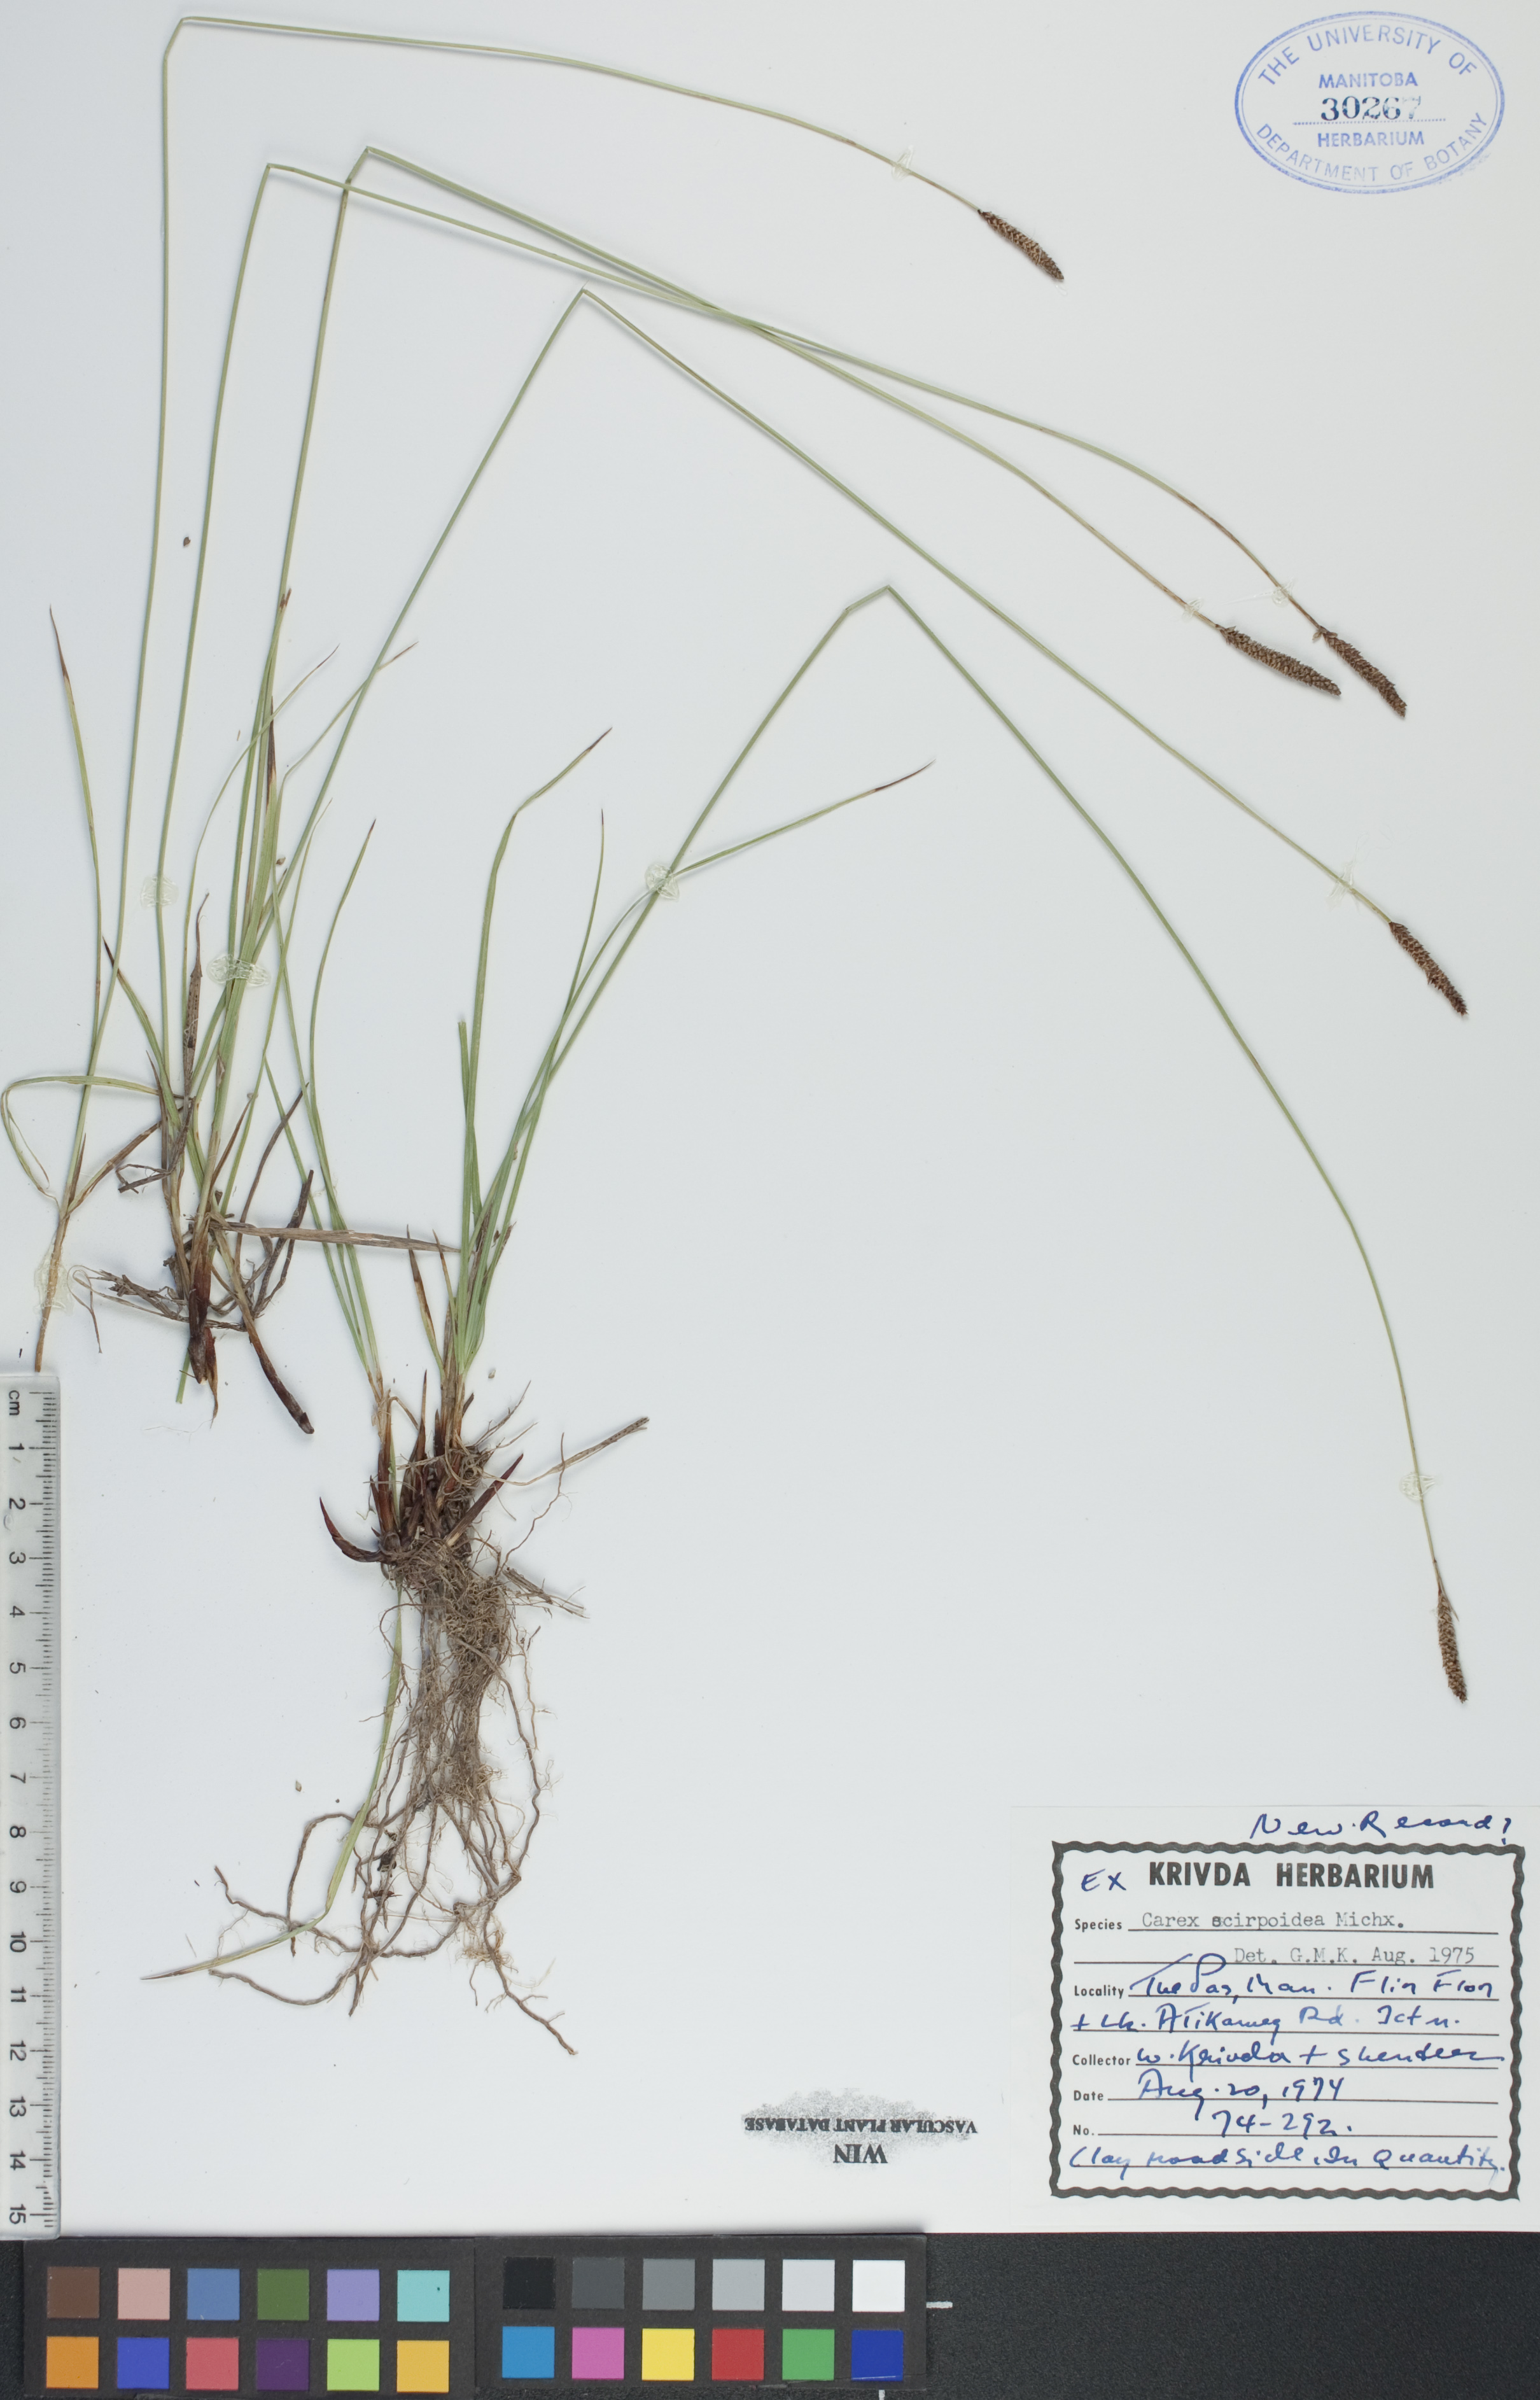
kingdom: Plantae
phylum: Tracheophyta
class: Liliopsida
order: Poales
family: Cyperaceae
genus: Carex
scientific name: Carex scirpoidea
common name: Canada single-spike sedge
